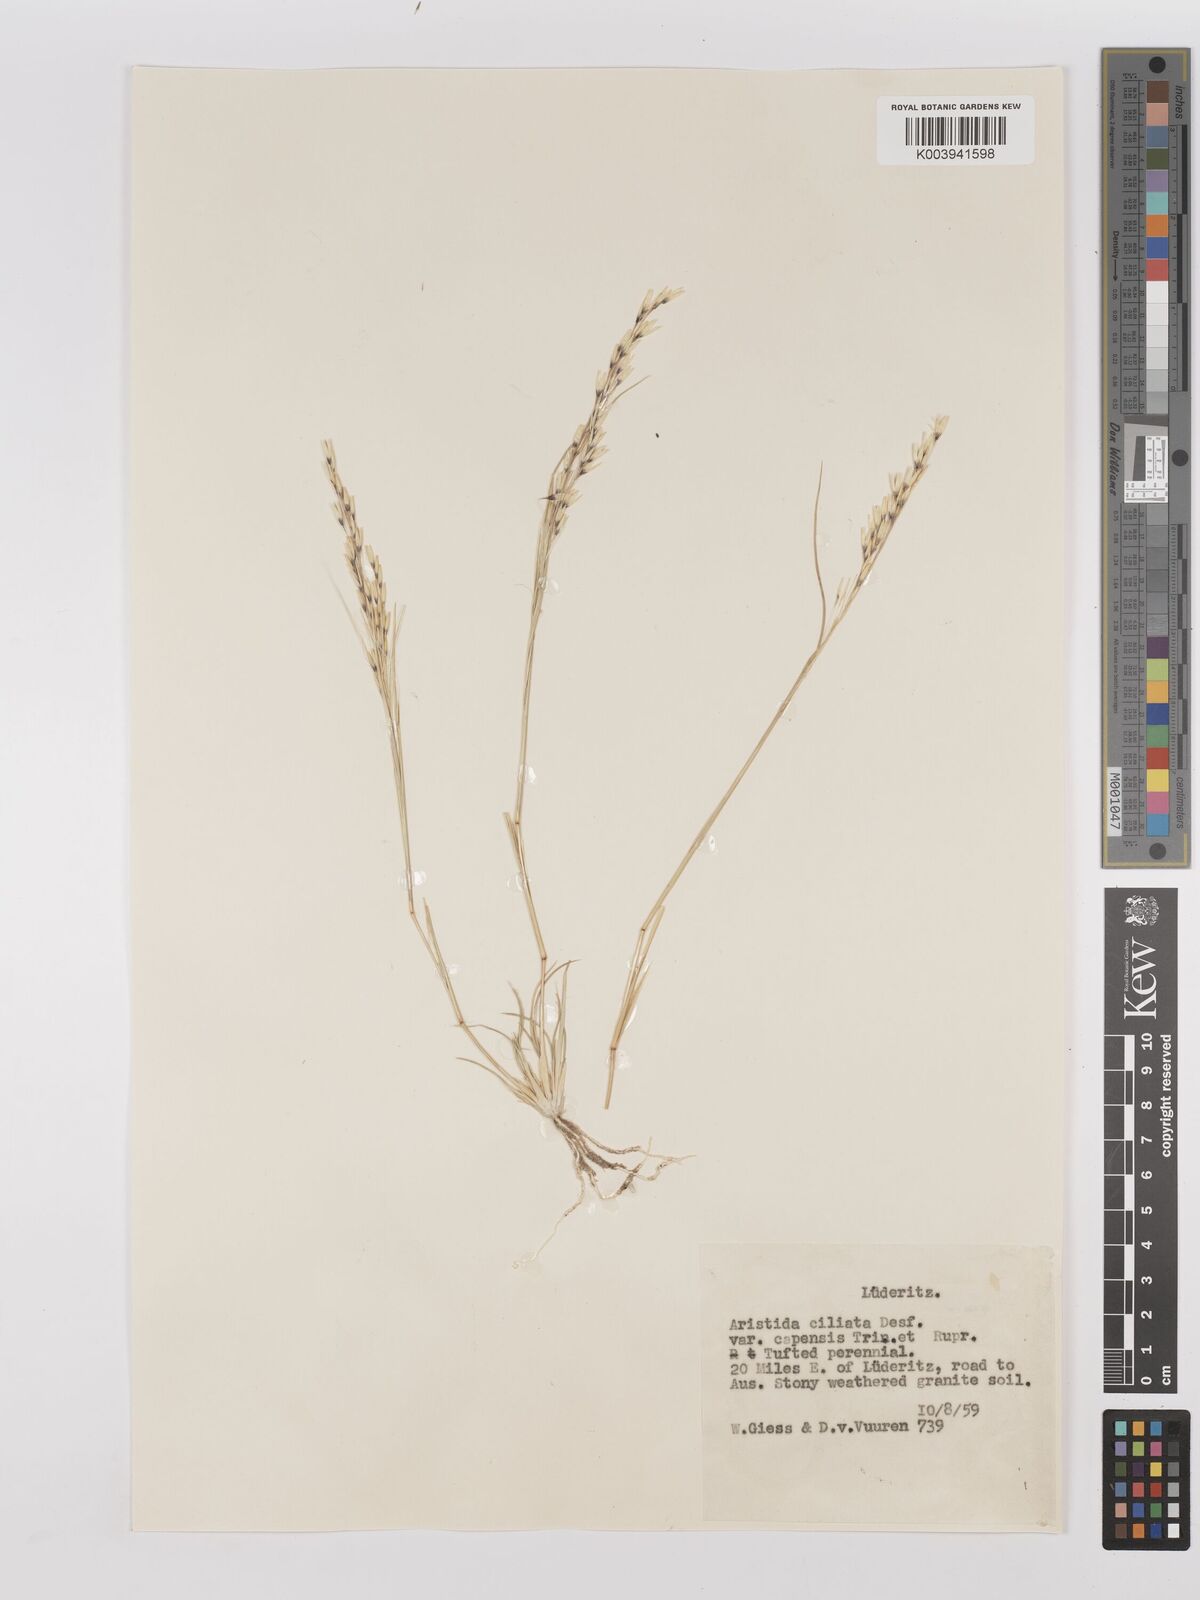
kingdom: Plantae
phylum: Tracheophyta
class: Liliopsida
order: Poales
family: Poaceae
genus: Stipagrostis
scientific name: Stipagrostis ciliata
